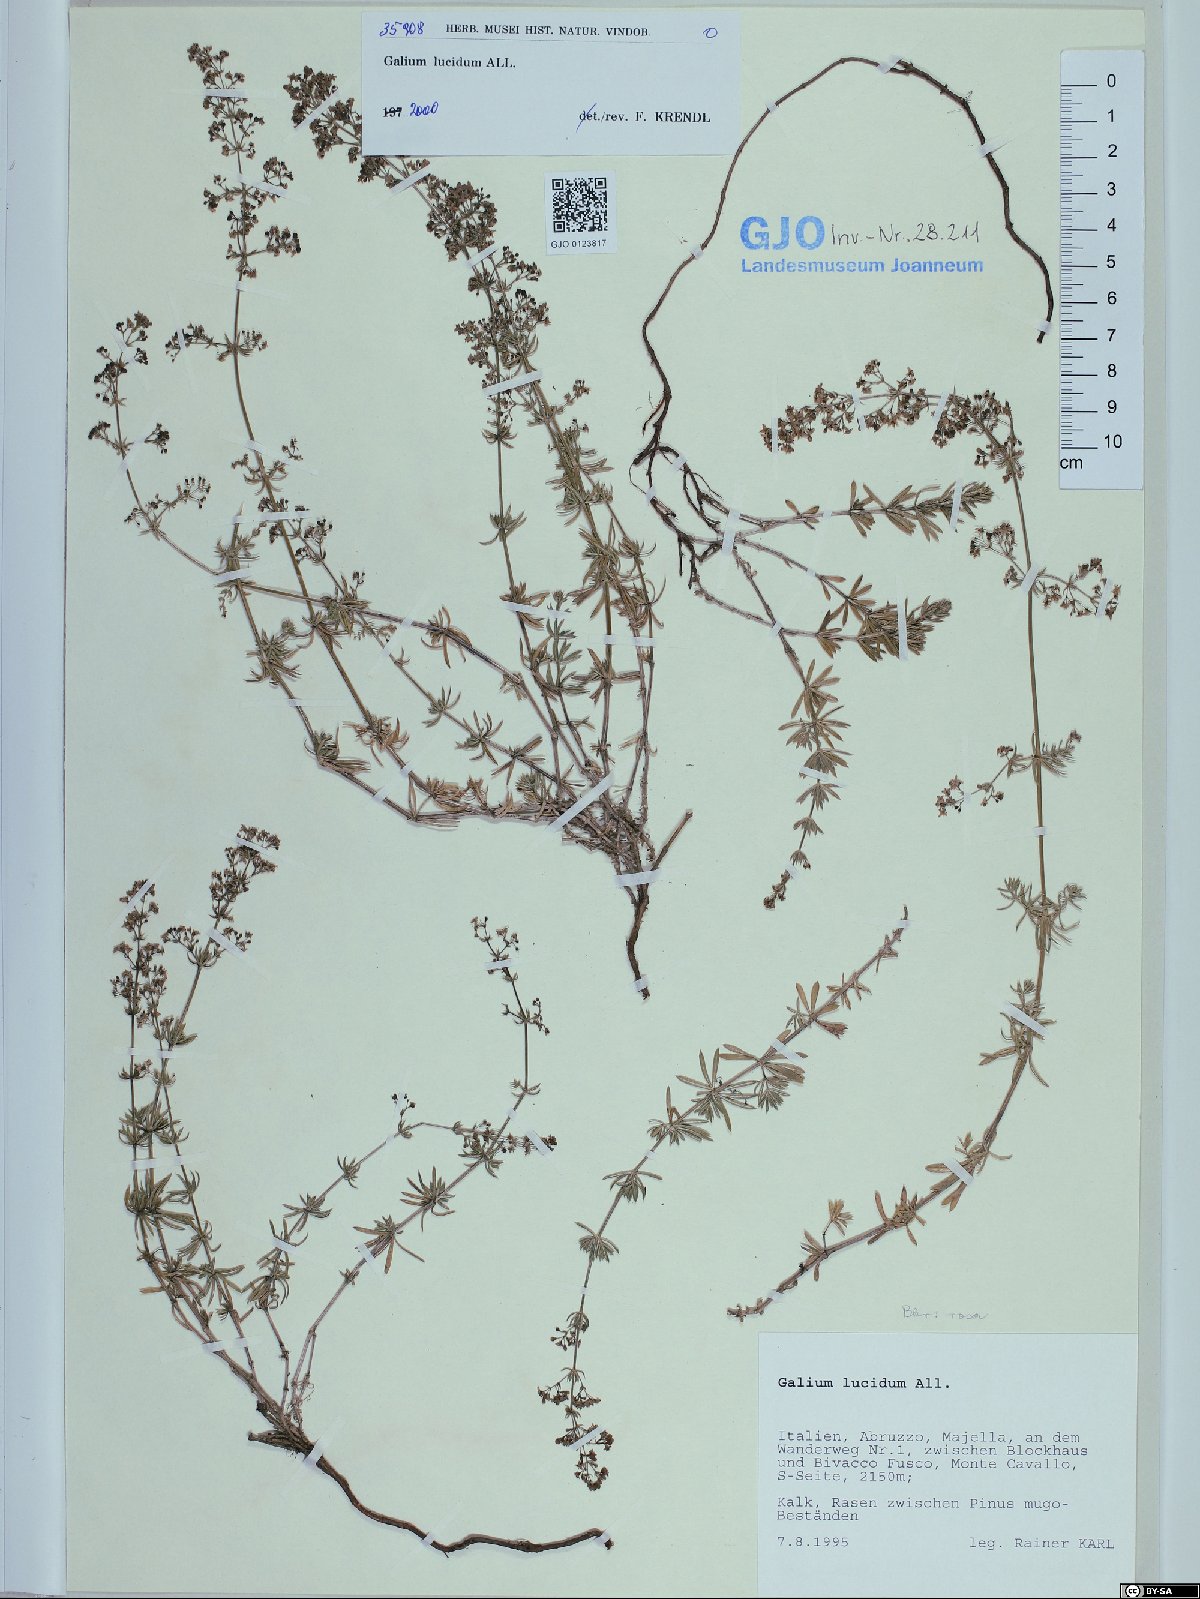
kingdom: Plantae
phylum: Tracheophyta
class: Magnoliopsida
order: Gentianales
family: Rubiaceae
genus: Galium
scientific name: Galium lucidum
